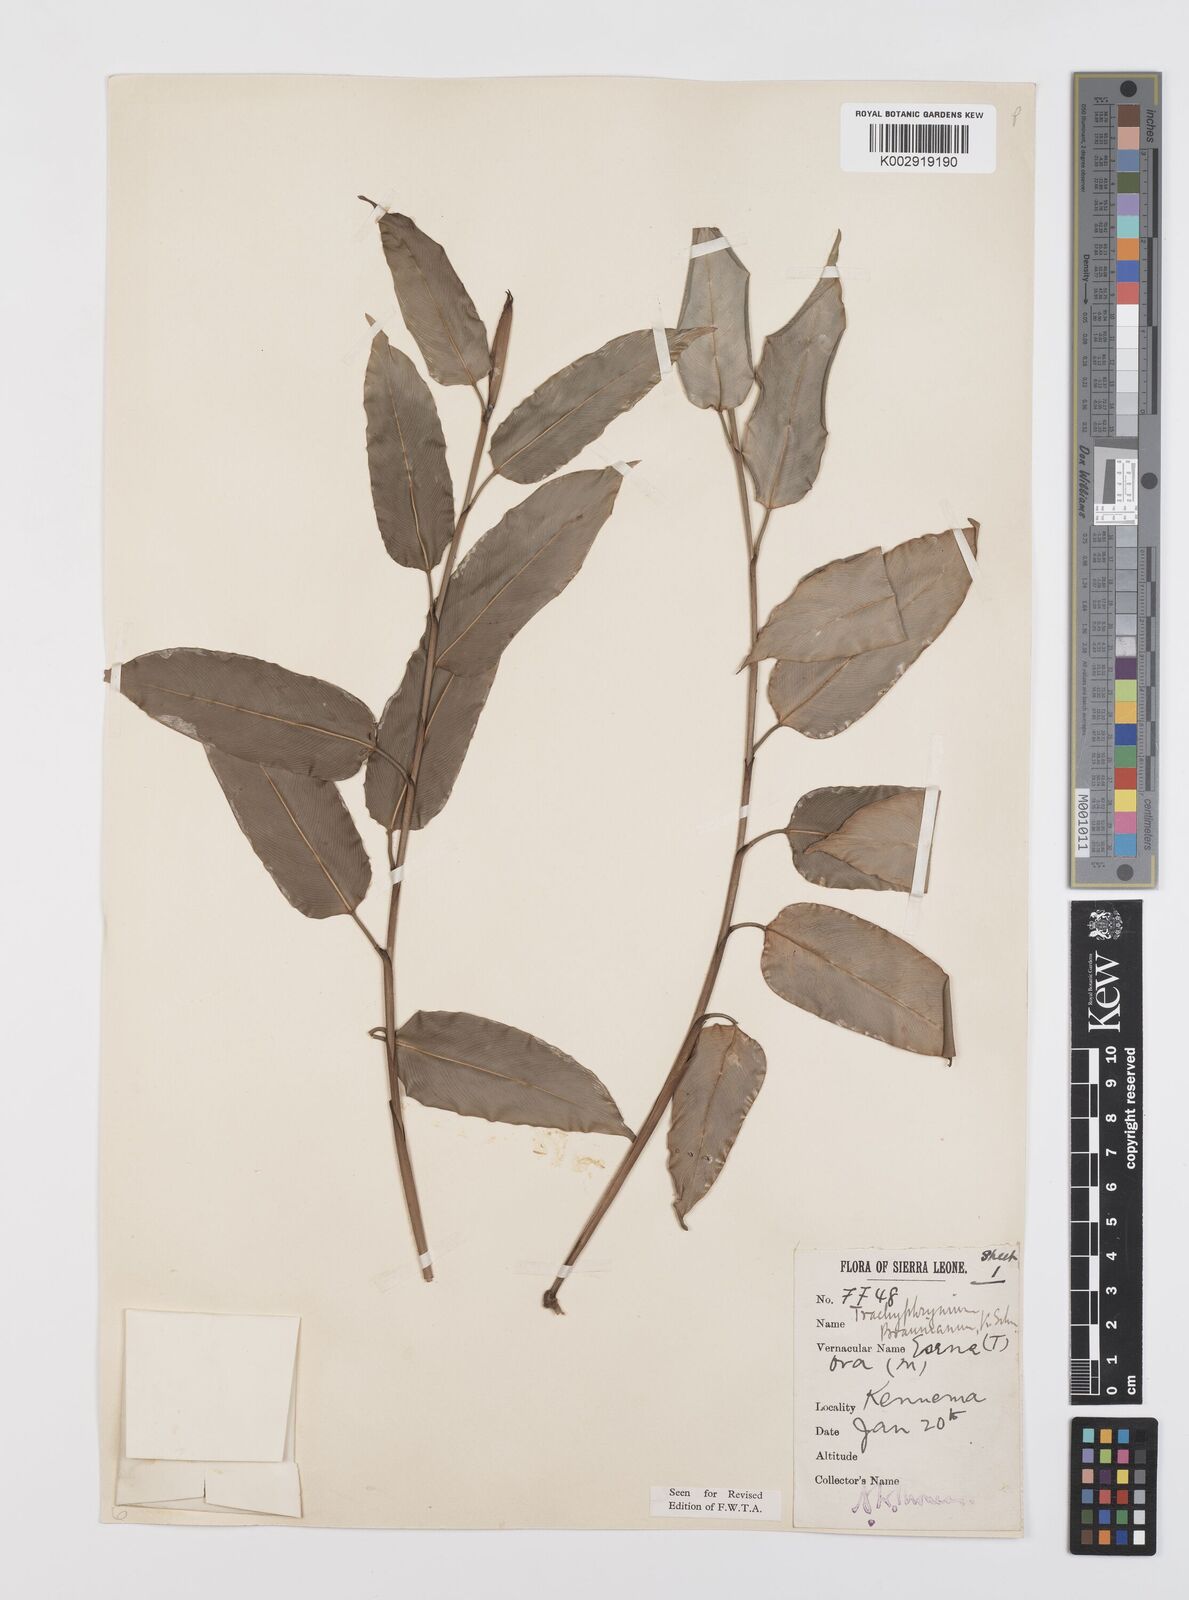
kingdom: Plantae
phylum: Tracheophyta
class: Liliopsida
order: Zingiberales
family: Marantaceae
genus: Hypselodelphys
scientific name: Hypselodelphys poggeana
